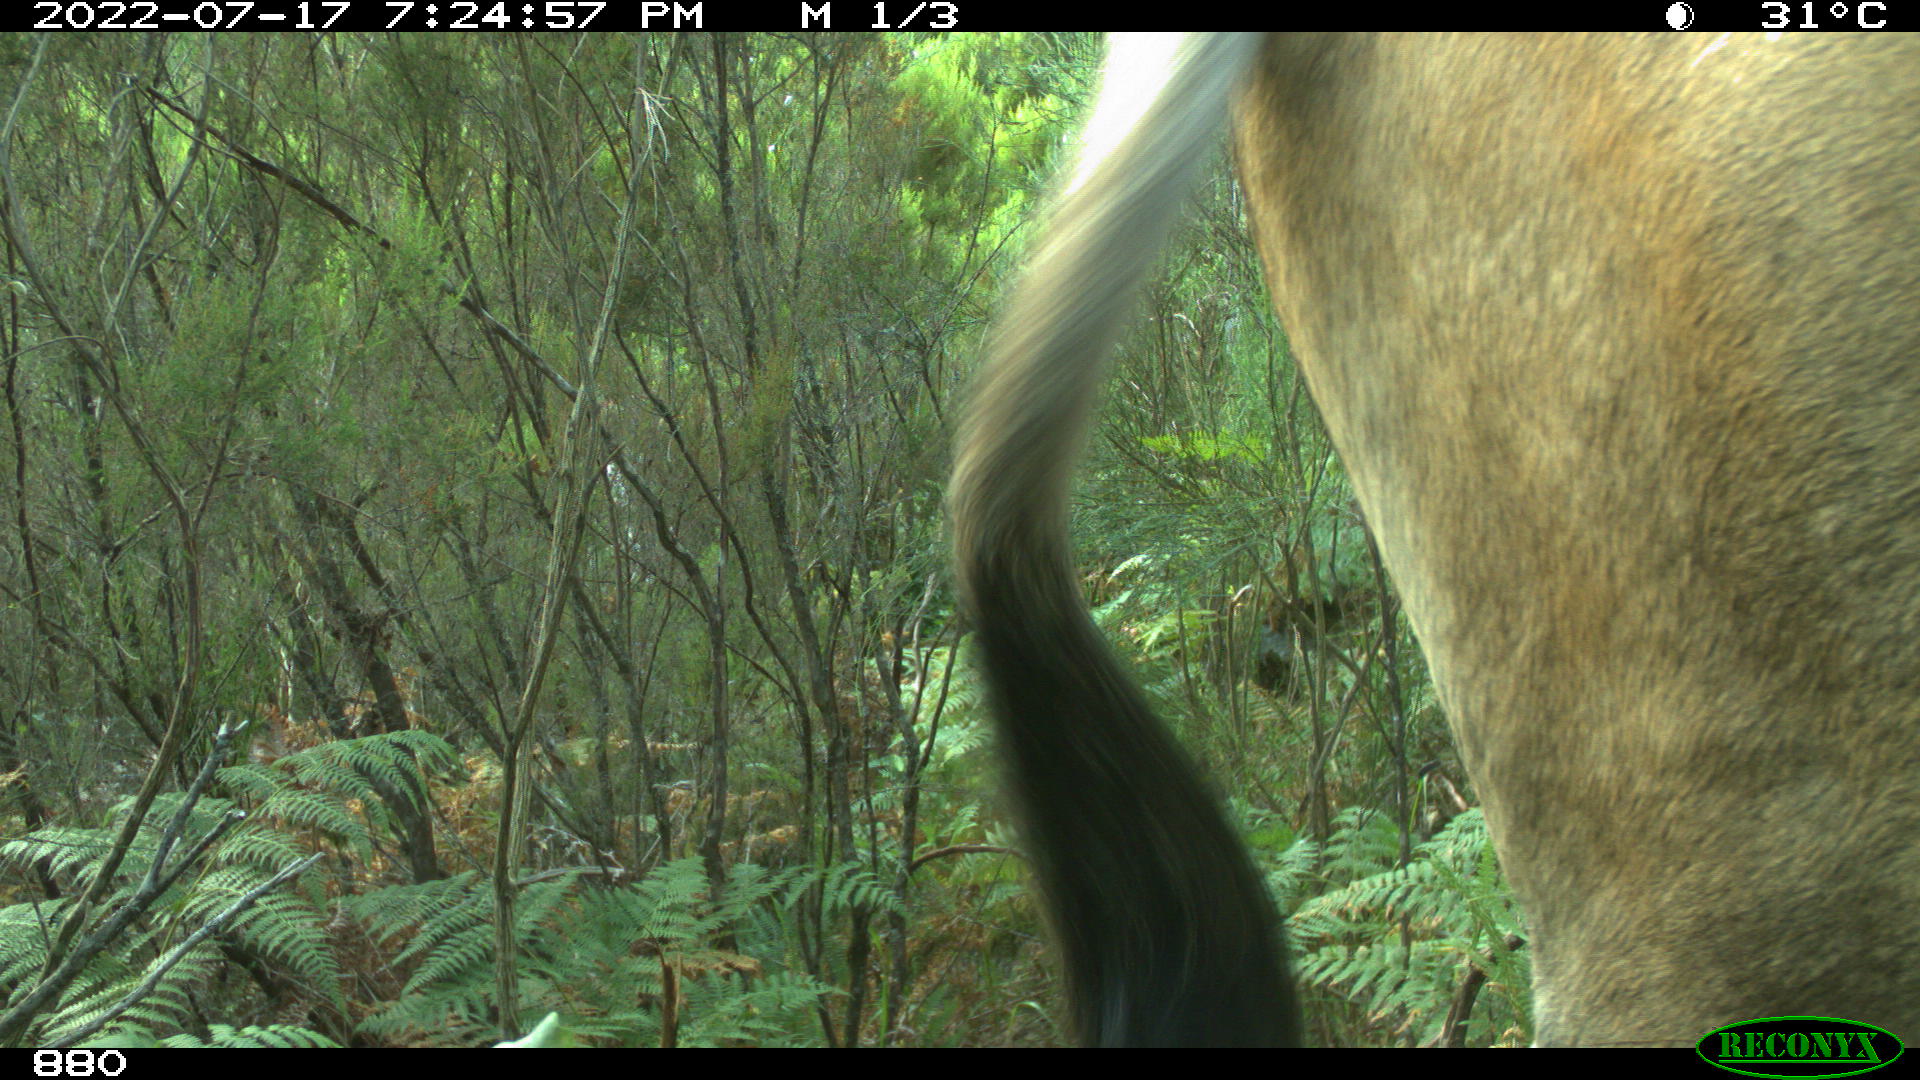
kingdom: Animalia
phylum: Chordata
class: Mammalia
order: Artiodactyla
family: Bovidae
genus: Bos
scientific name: Bos taurus
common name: Domesticated cattle
